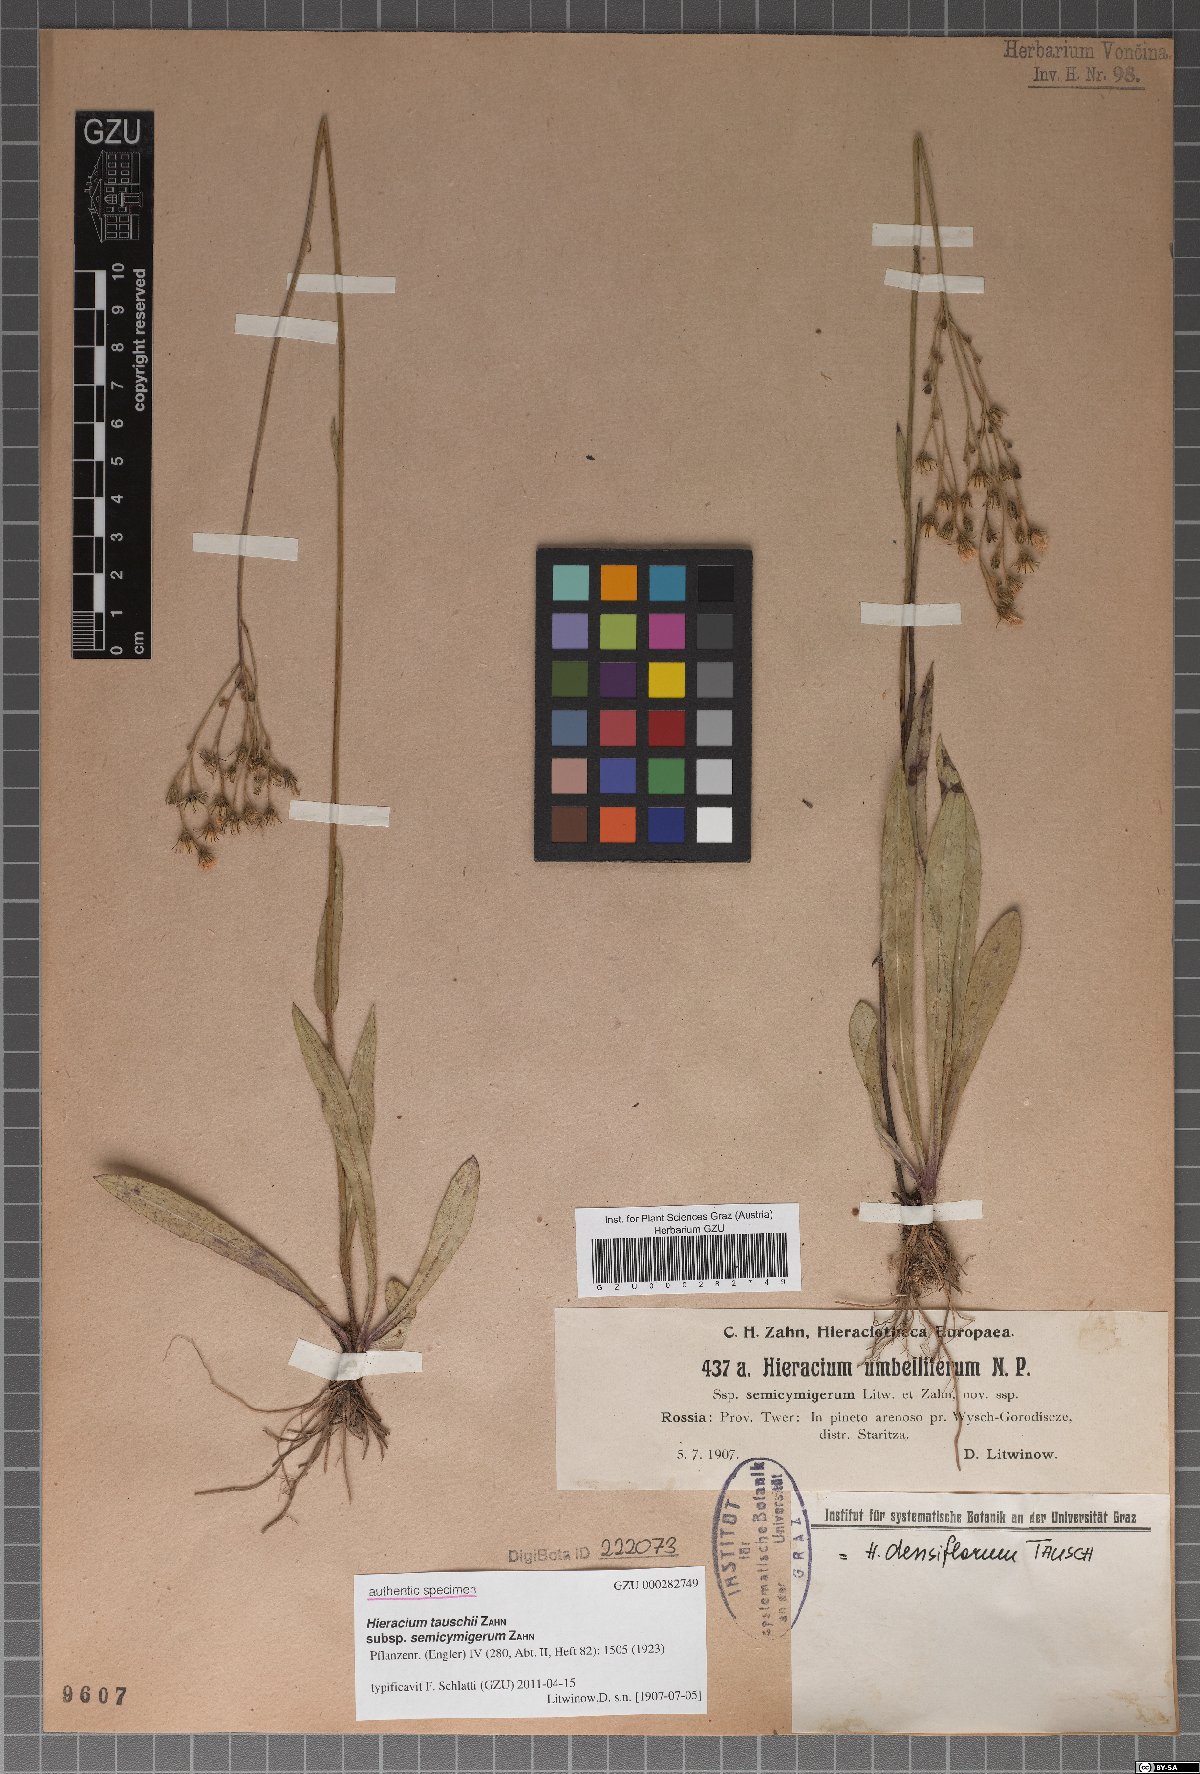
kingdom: Plantae
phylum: Tracheophyta
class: Magnoliopsida
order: Asterales
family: Asteraceae
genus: Pilosella
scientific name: Pilosella densiflora
